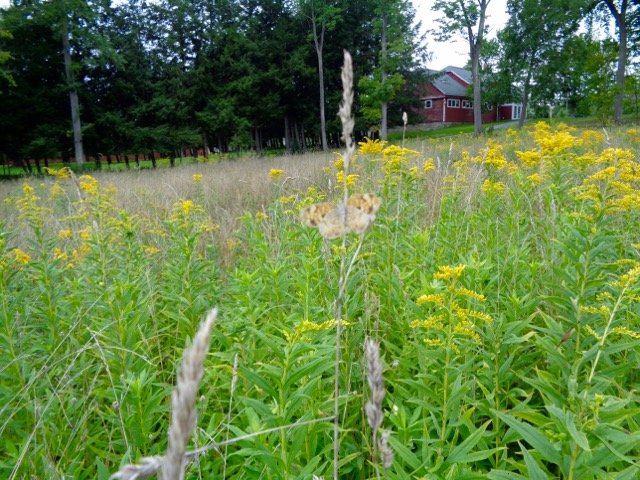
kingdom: Animalia
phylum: Arthropoda
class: Insecta
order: Lepidoptera
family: Nymphalidae
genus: Phyciodes
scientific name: Phyciodes tharos
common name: Pearl Crescent
